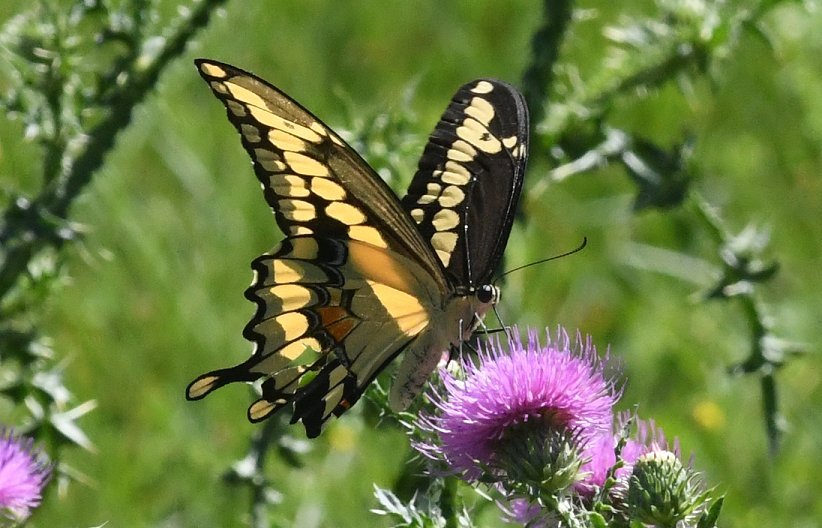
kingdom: Animalia
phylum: Arthropoda
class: Insecta
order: Lepidoptera
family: Papilionidae
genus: Papilio
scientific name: Papilio cresphontes
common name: Eastern Giant Swallowtail
